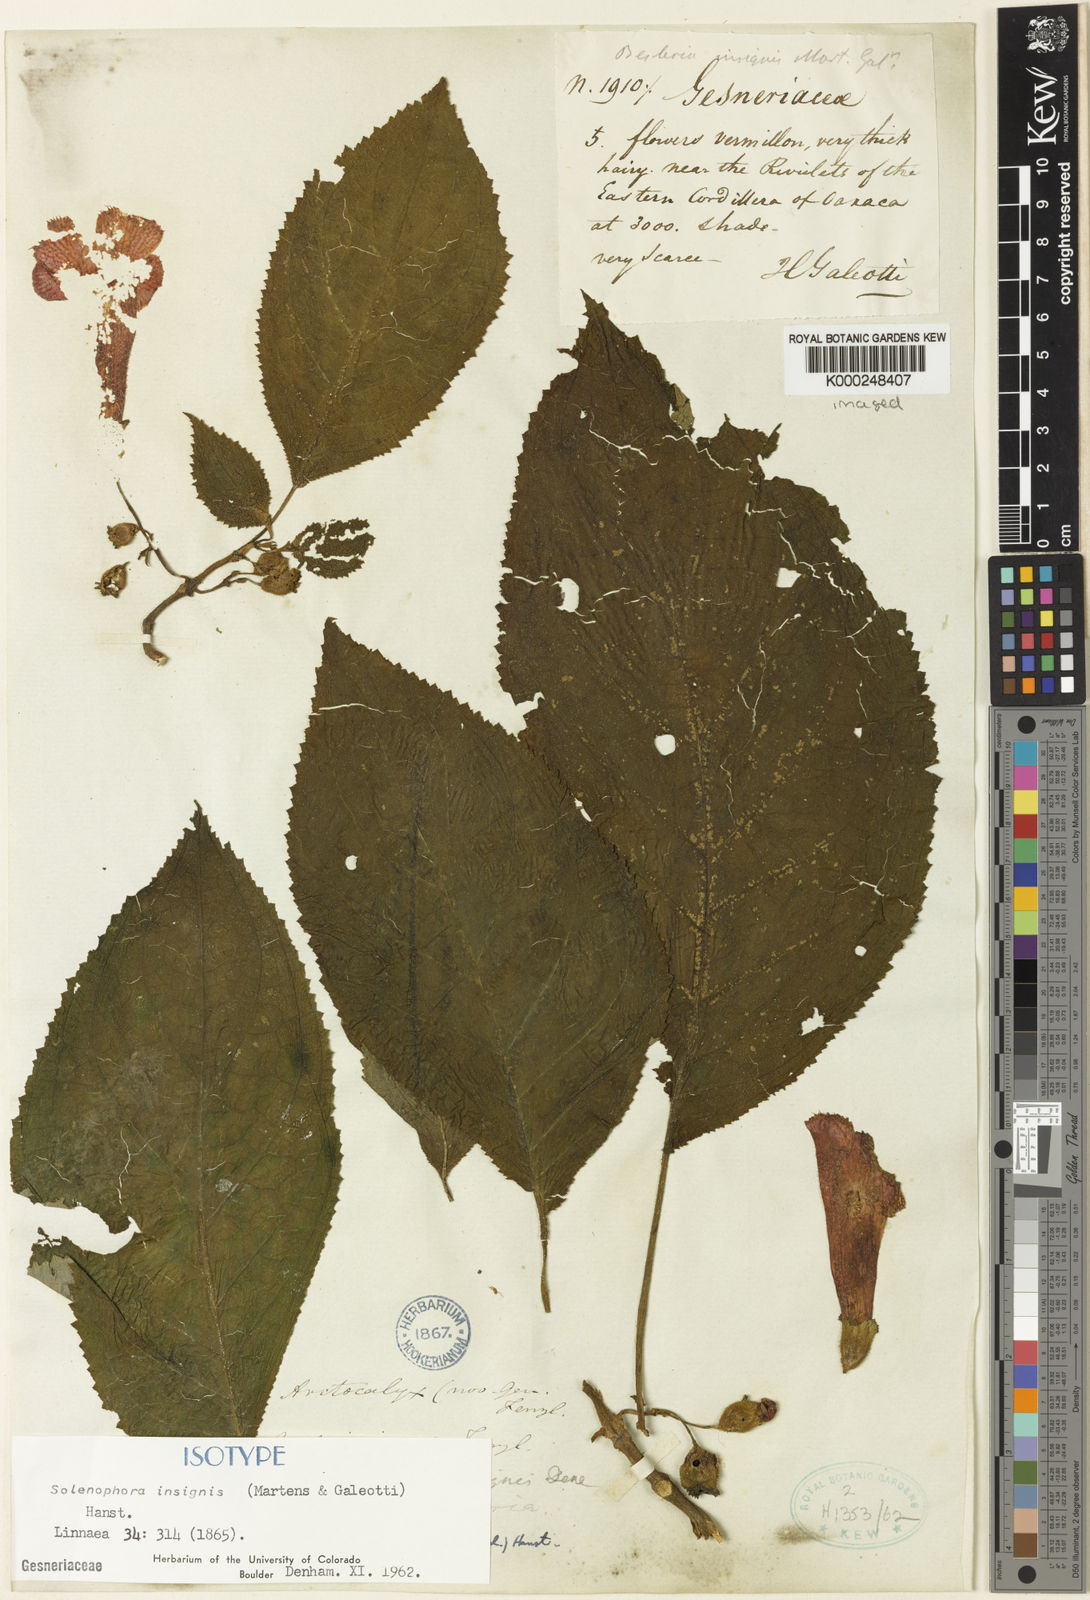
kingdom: Plantae
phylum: Tracheophyta
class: Magnoliopsida
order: Lamiales
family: Gesneriaceae
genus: Solenophora
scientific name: Solenophora insignis
